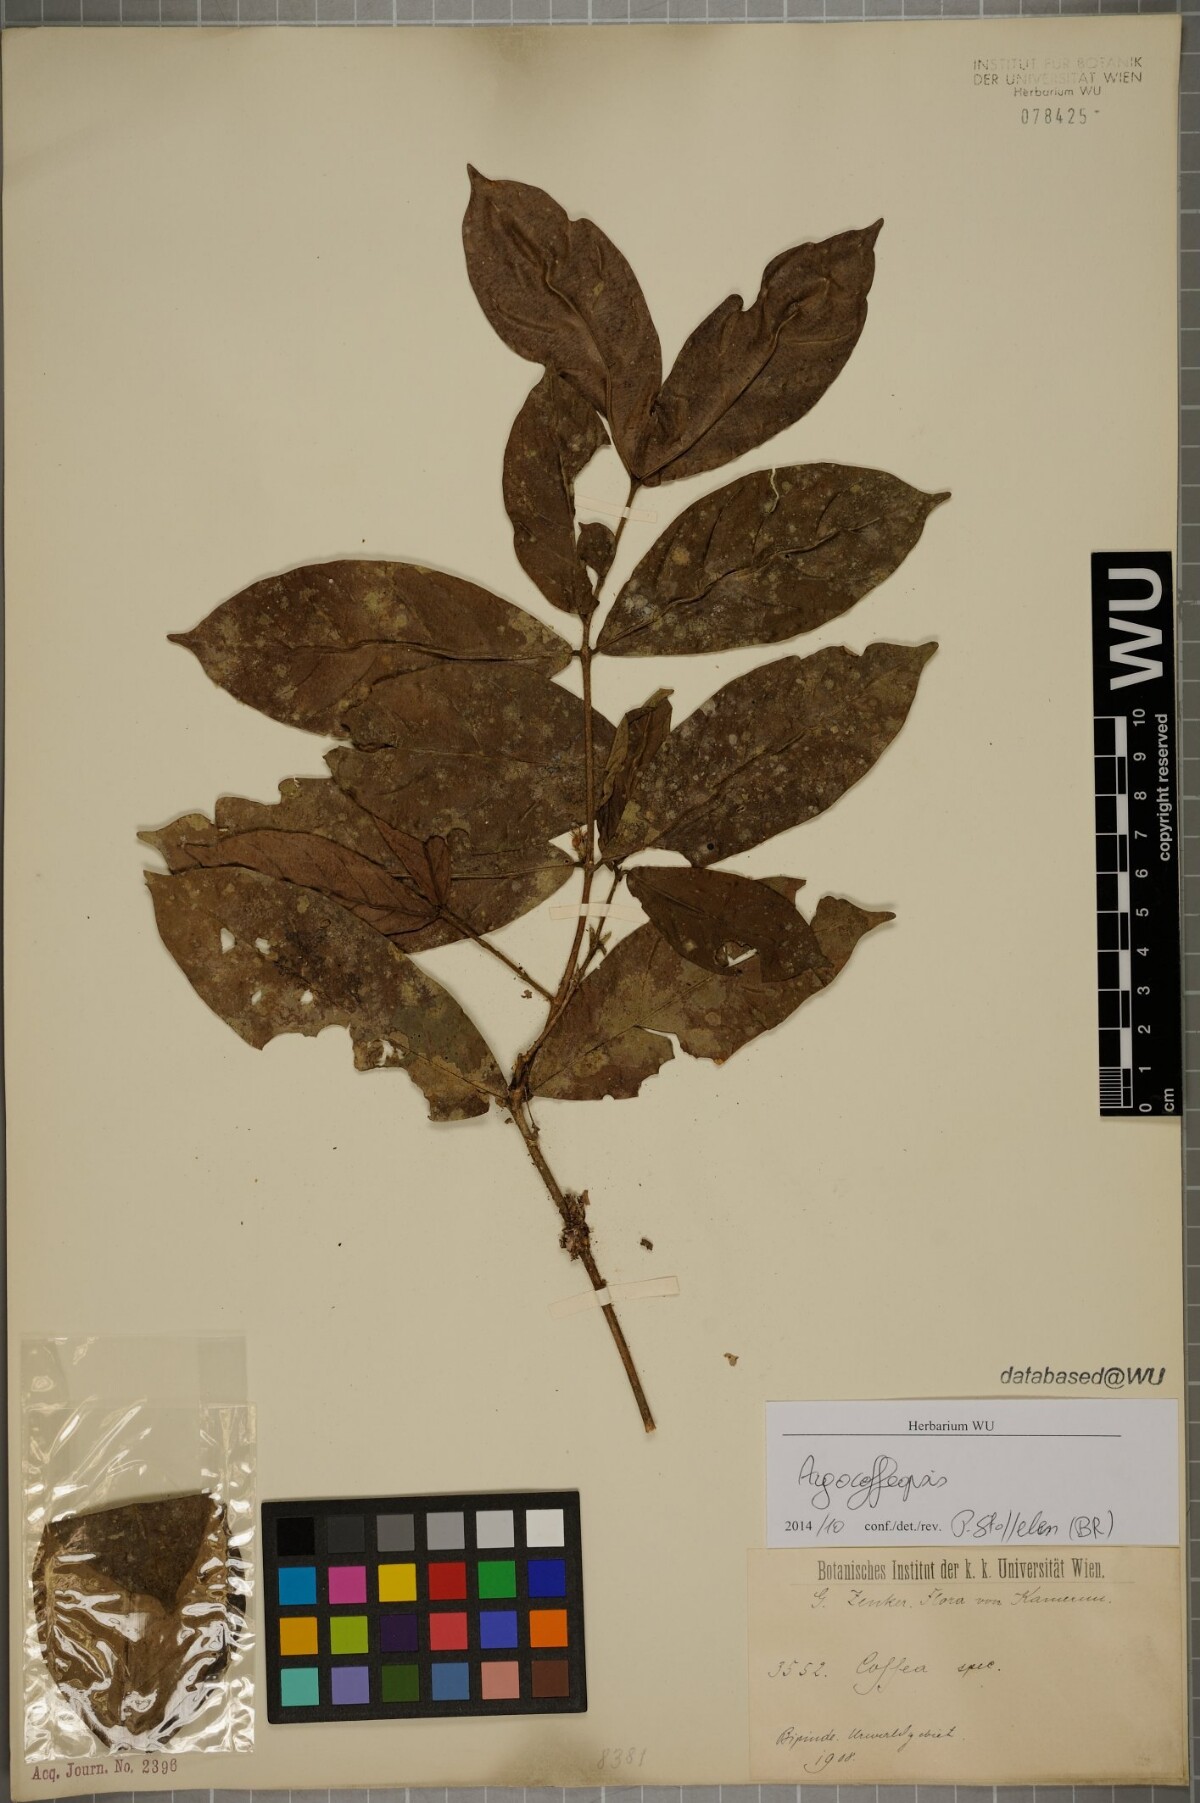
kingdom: Plantae
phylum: Tracheophyta
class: Magnoliopsida
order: Gentianales
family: Rubiaceae
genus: Argocoffeopsis
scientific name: Argocoffeopsis
